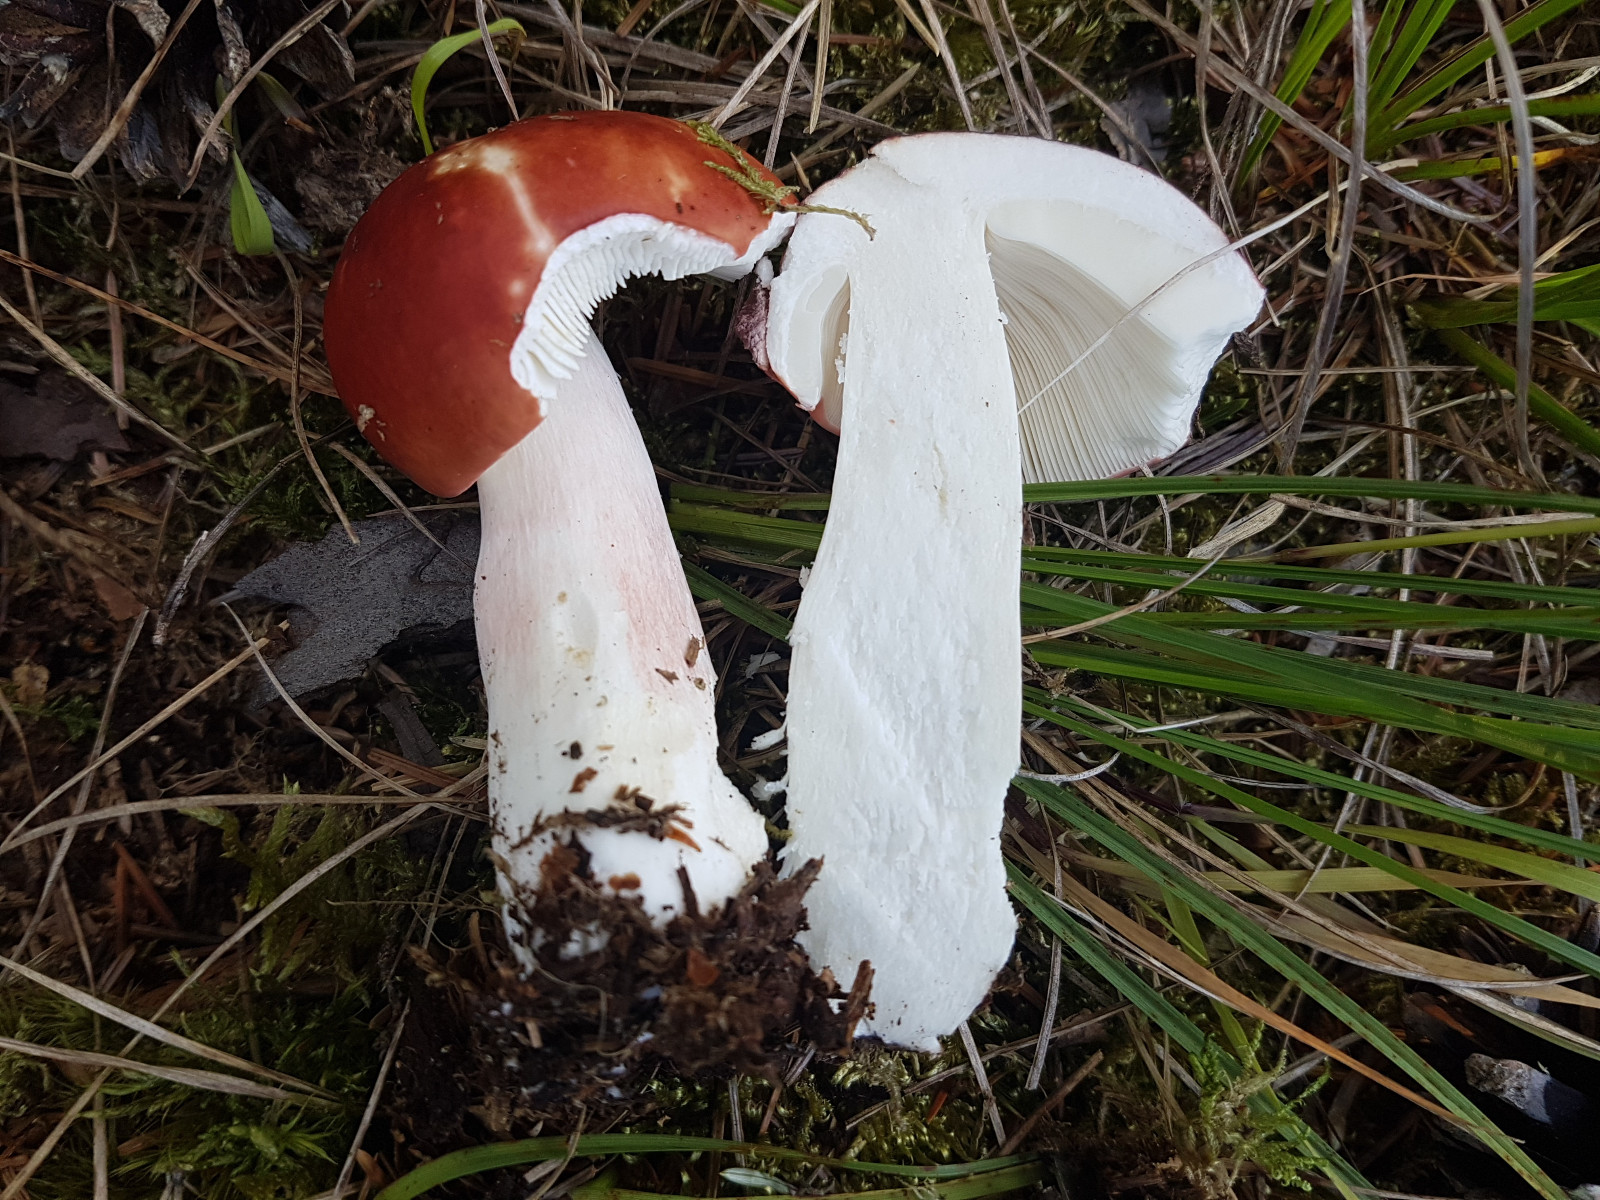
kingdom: Fungi
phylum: Basidiomycota
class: Agaricomycetes
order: Russulales
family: Russulaceae
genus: Russula
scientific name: Russula paludosa
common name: prægtig skørhat
